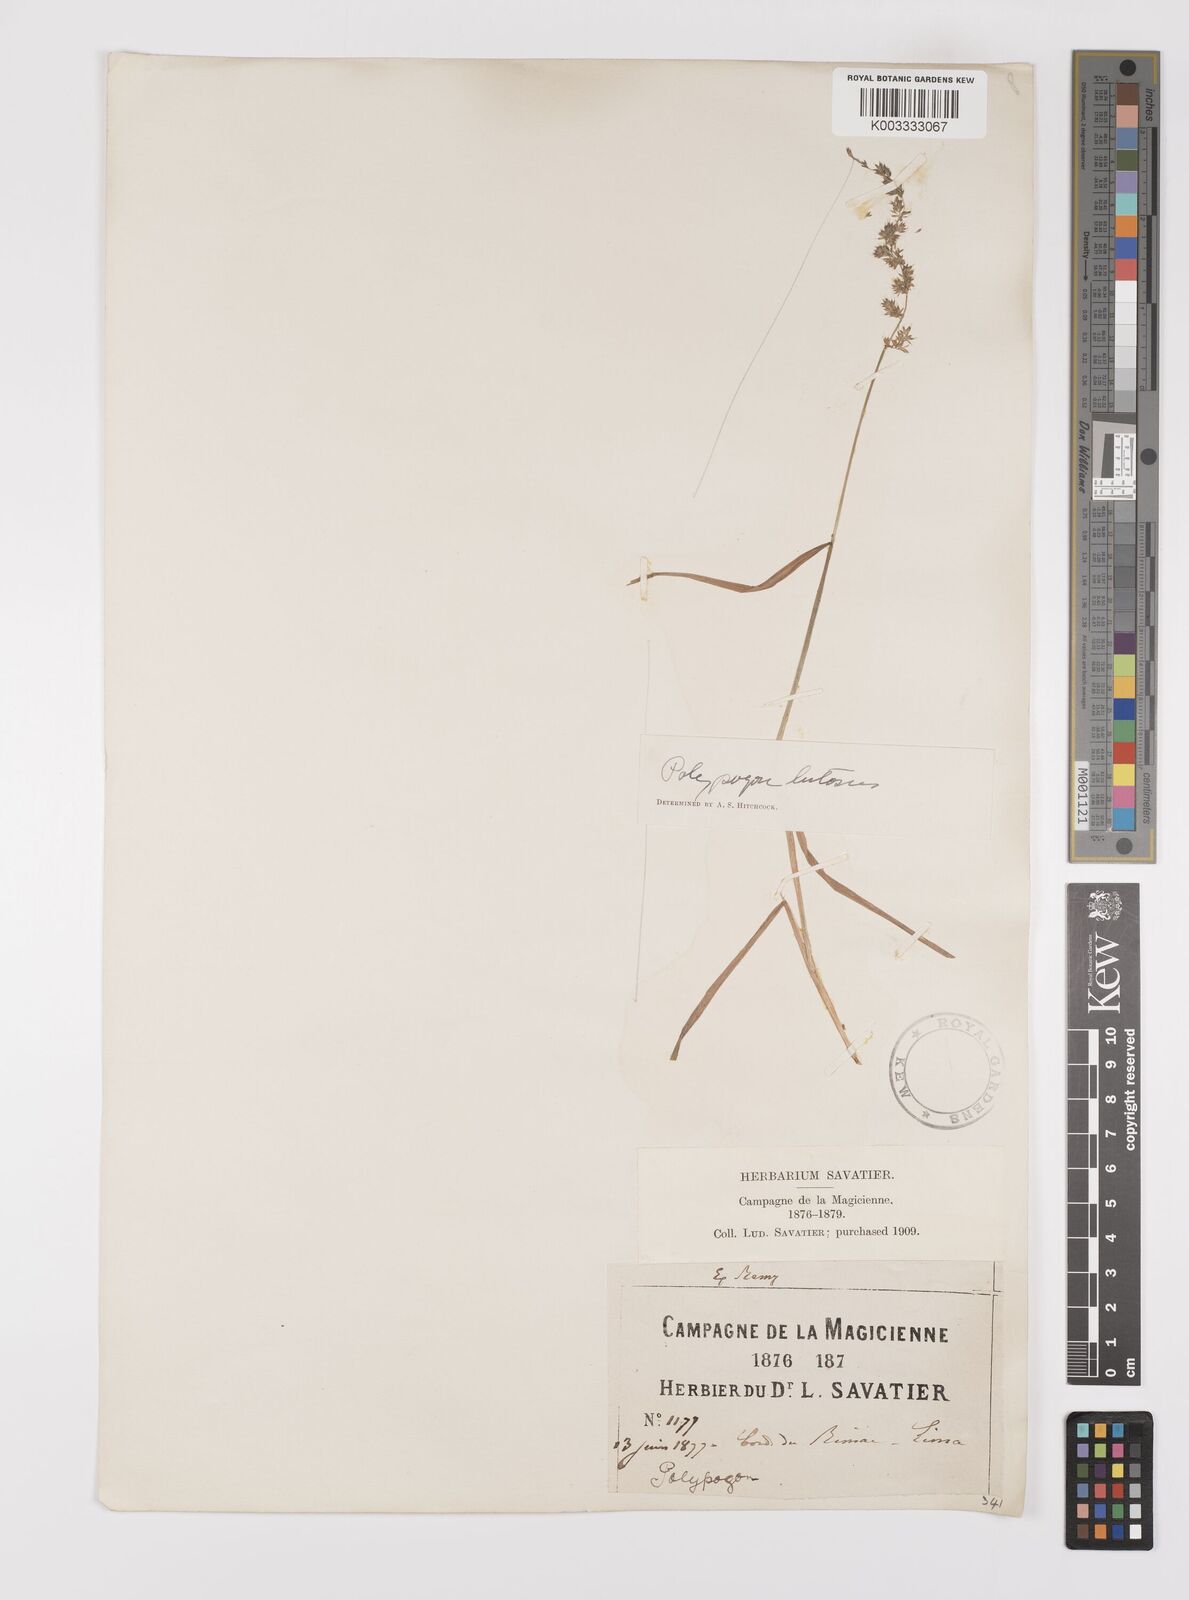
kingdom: Plantae
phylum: Tracheophyta
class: Liliopsida
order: Poales
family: Poaceae
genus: Polypogon
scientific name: Polypogon interruptus
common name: Ditch polypogon
